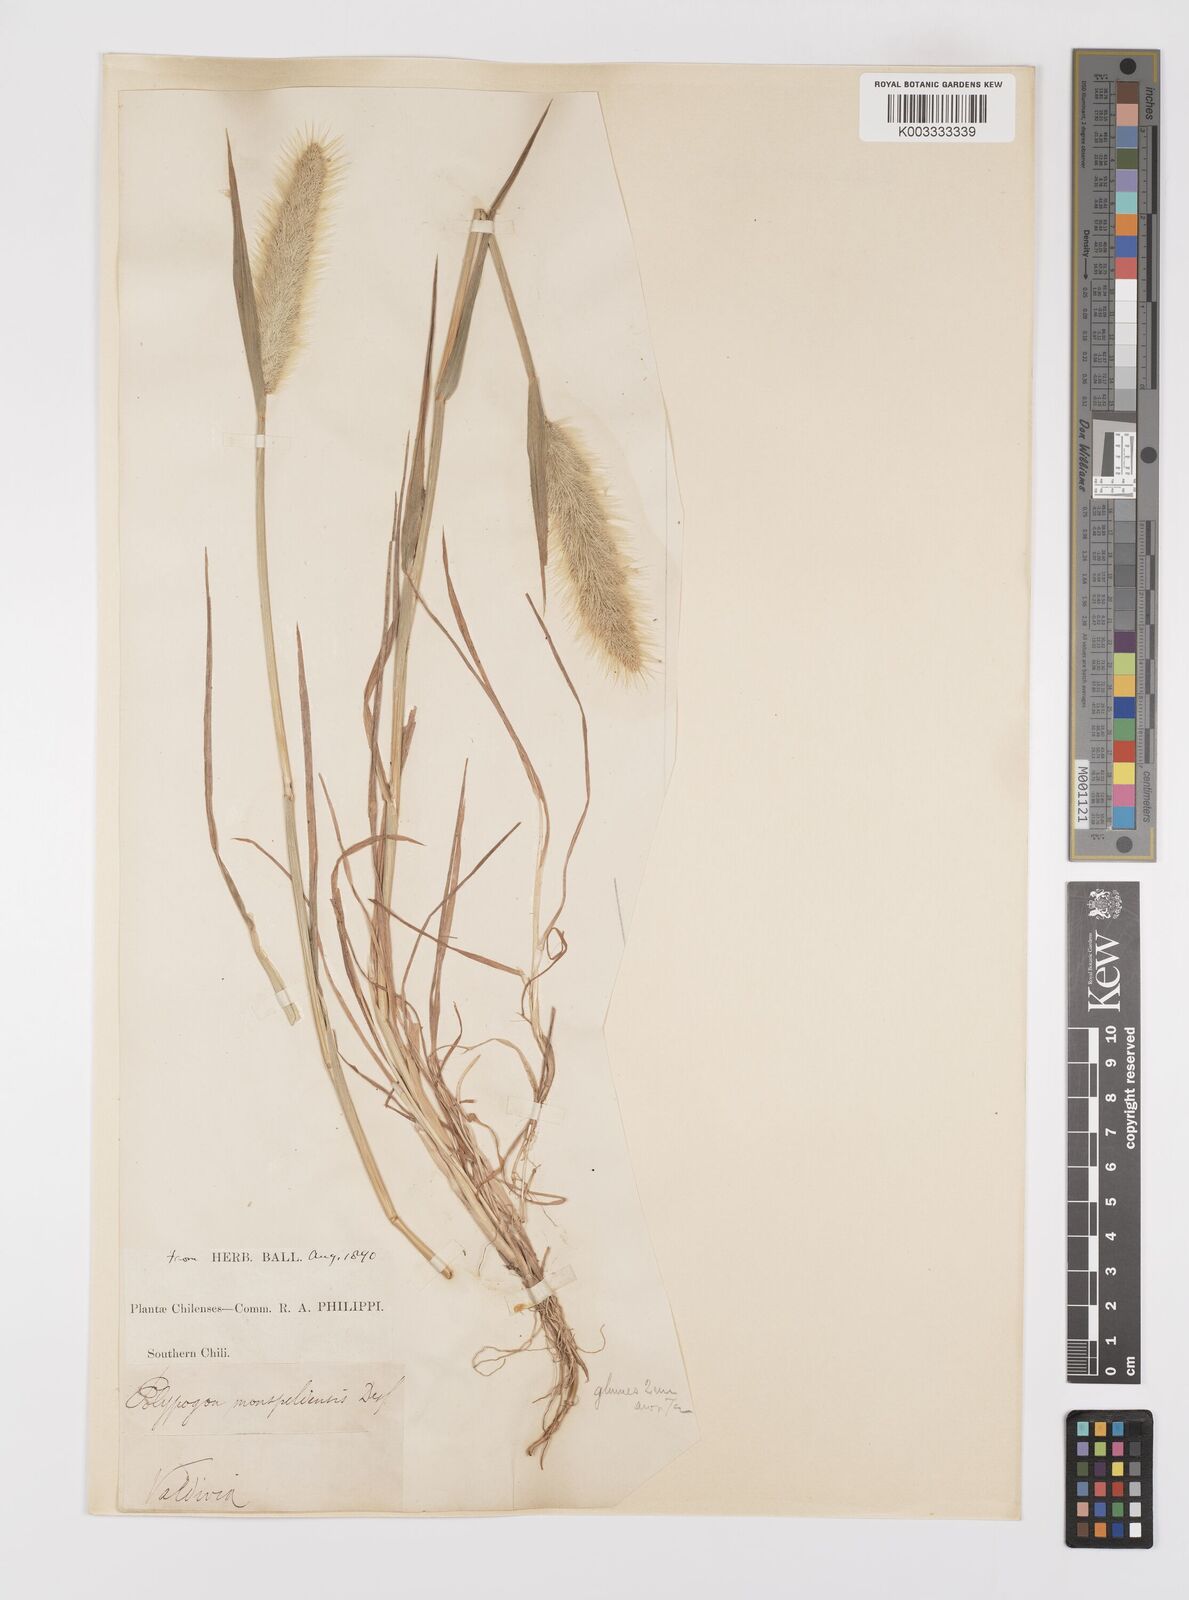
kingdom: Plantae
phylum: Tracheophyta
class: Liliopsida
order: Poales
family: Poaceae
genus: Polypogon
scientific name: Polypogon monspeliensis
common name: Annual rabbitsfoot grass
